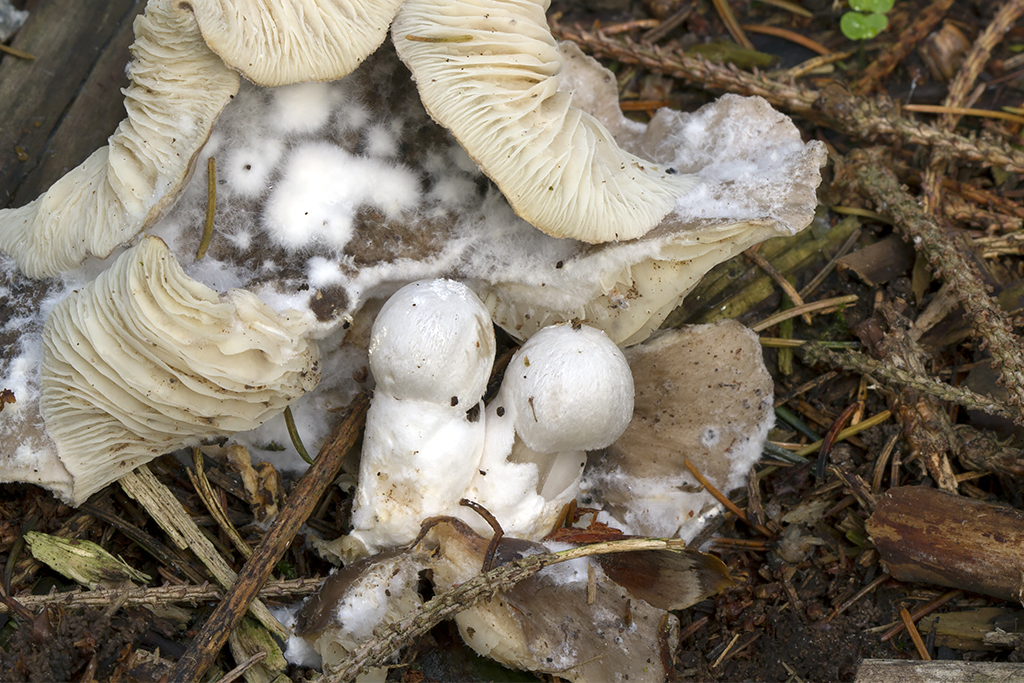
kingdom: Fungi
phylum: Basidiomycota
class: Agaricomycetes
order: Agaricales
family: Pluteaceae
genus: Volvariella
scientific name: Volvariella surrecta
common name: snyltende posesvamp
